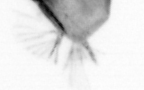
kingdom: Animalia
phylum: Chaetognatha
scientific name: Chaetognatha
